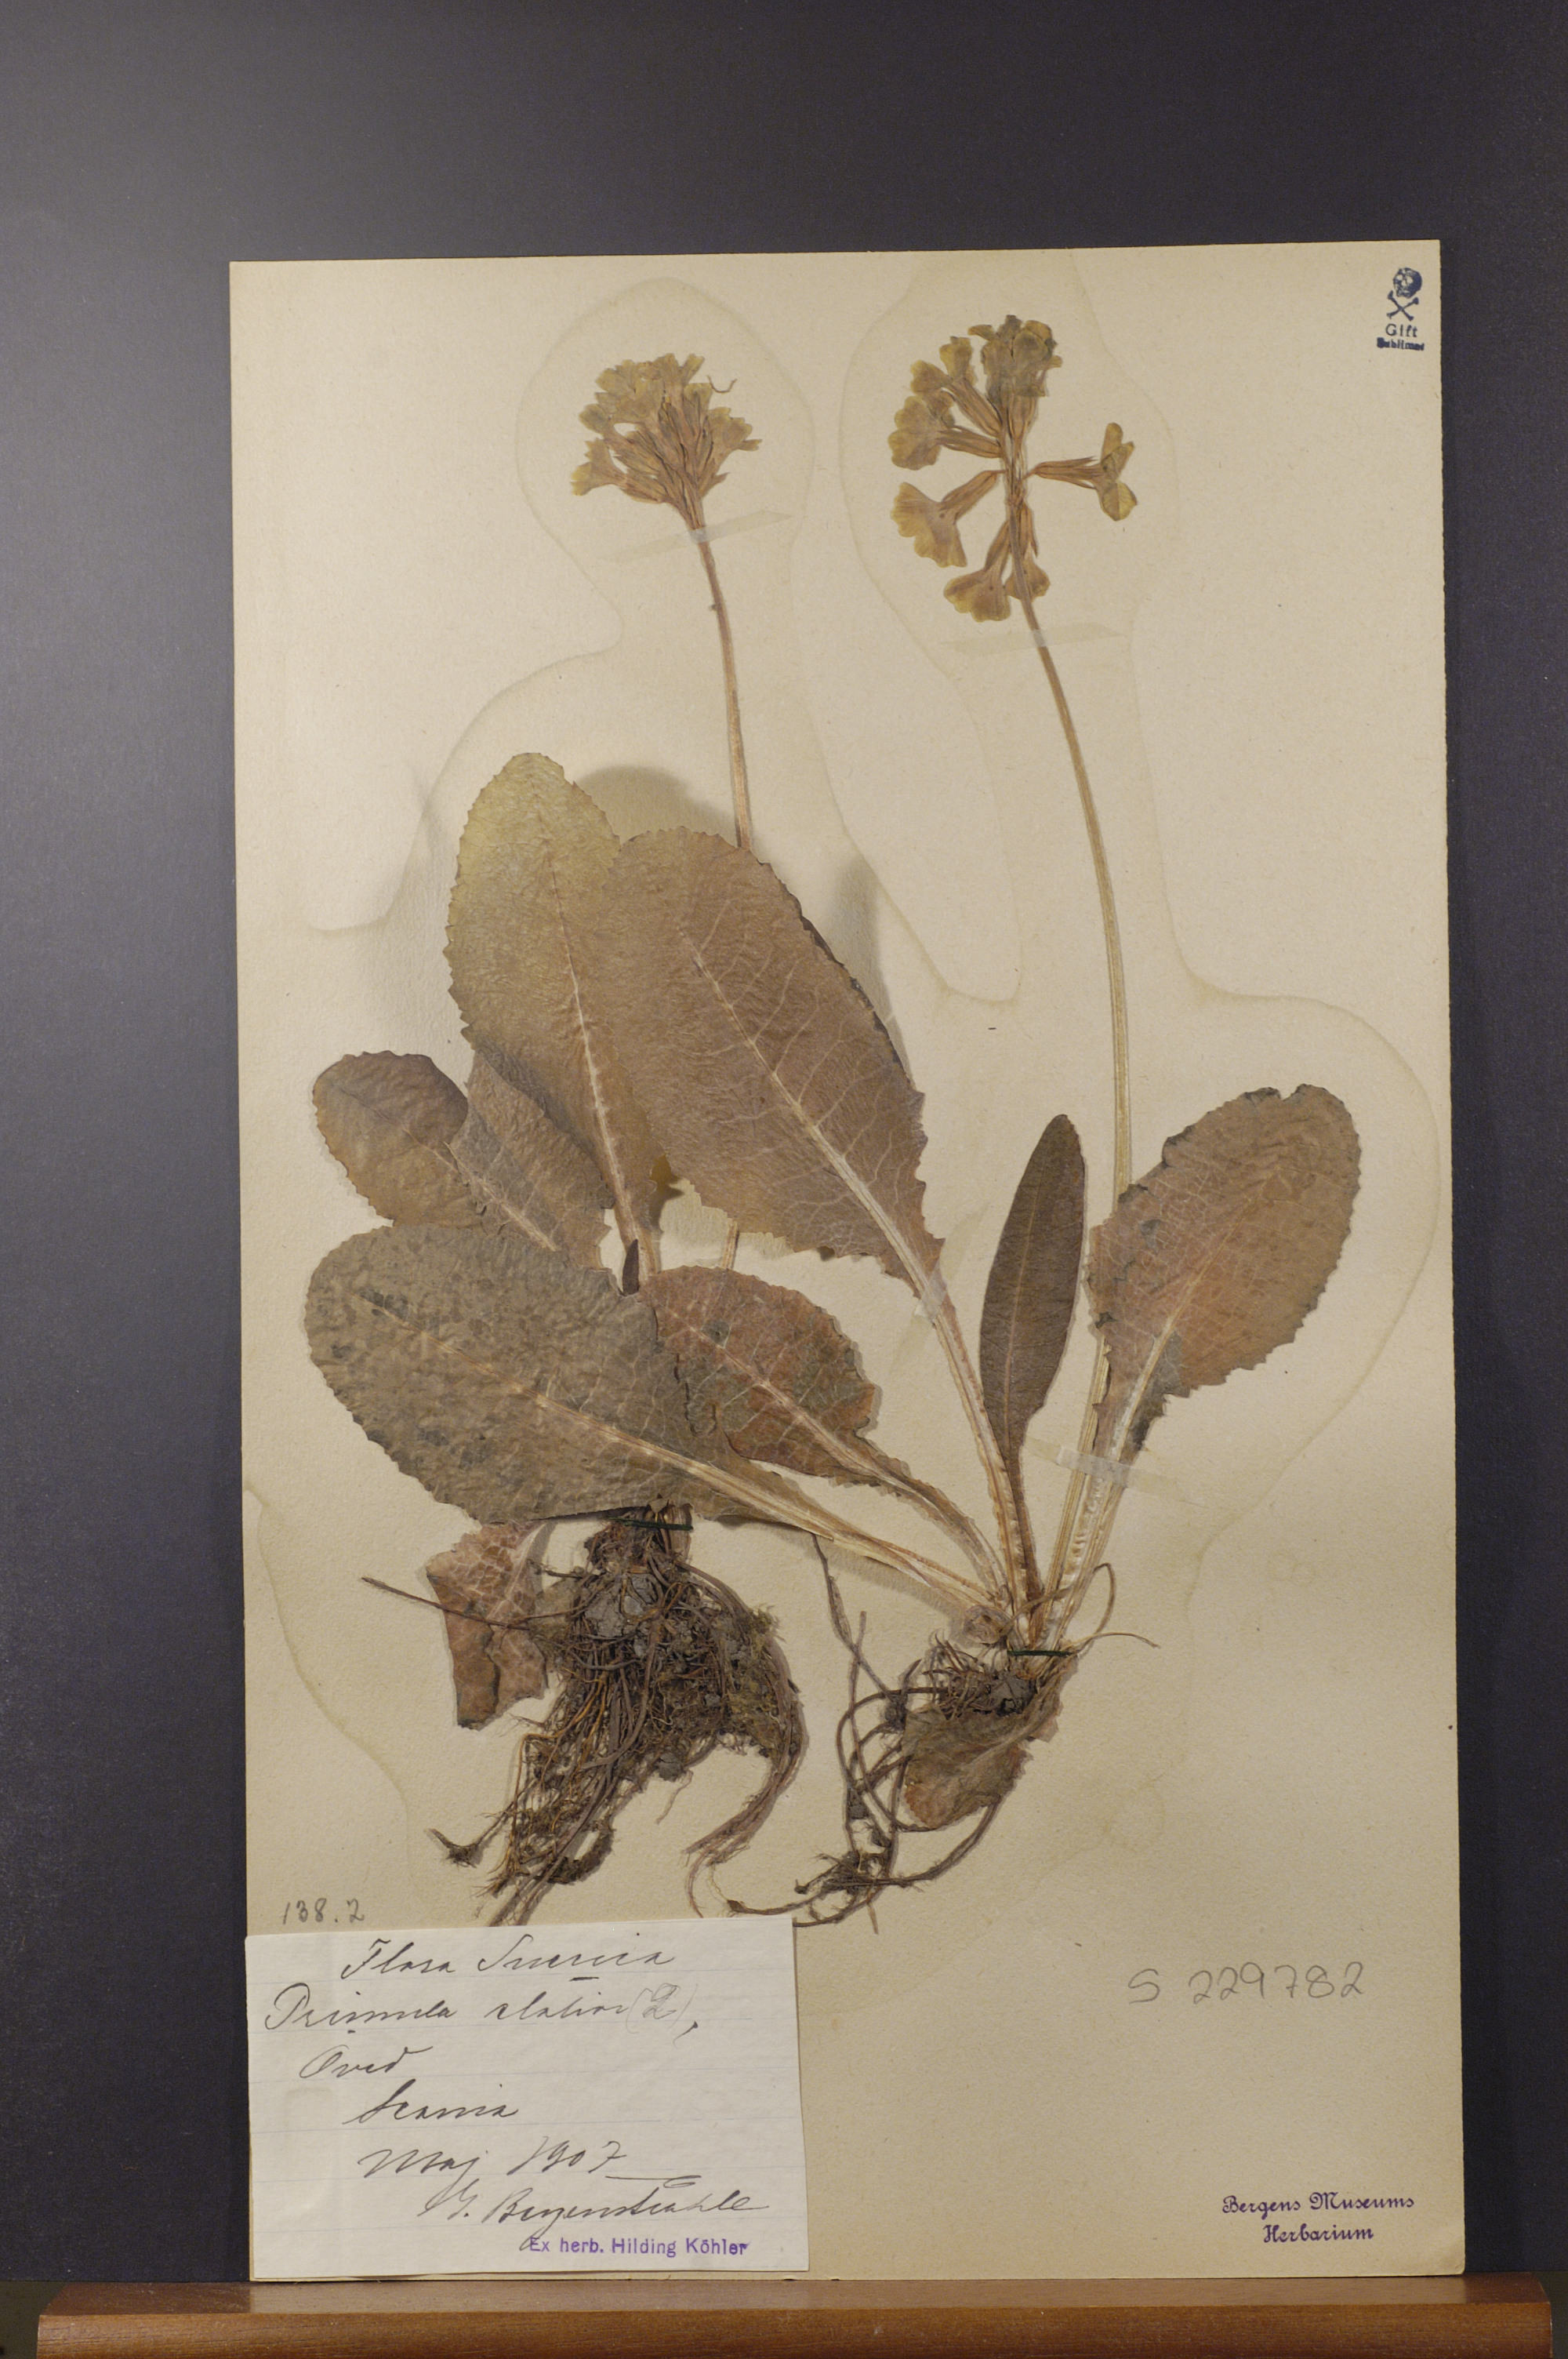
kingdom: Plantae
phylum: Tracheophyta
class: Magnoliopsida
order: Ericales
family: Primulaceae
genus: Primula
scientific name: Primula elatior
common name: Oxlip
